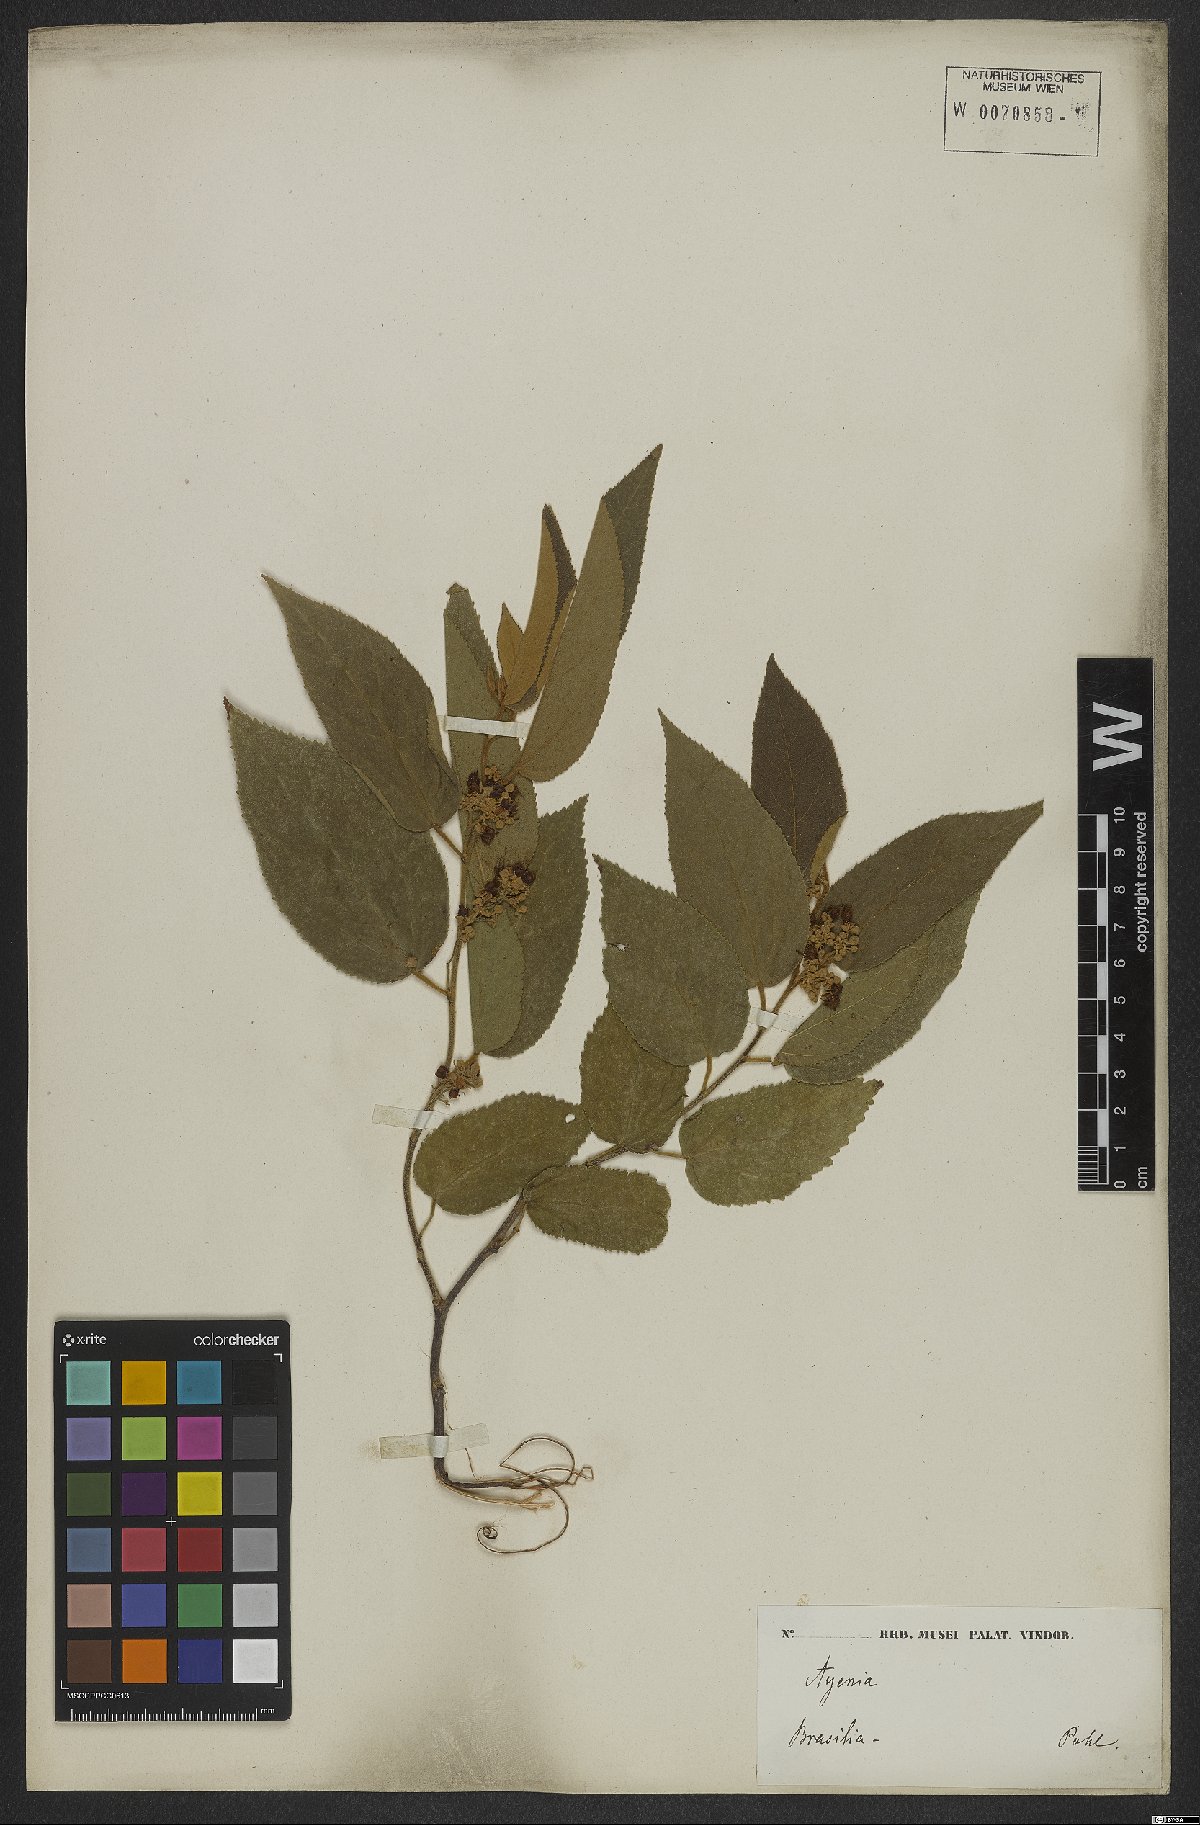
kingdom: Plantae
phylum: Tracheophyta
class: Magnoliopsida
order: Malvales
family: Malvaceae
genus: Guazuma
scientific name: Guazuma ulmifolia
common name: Bastard-cedar
